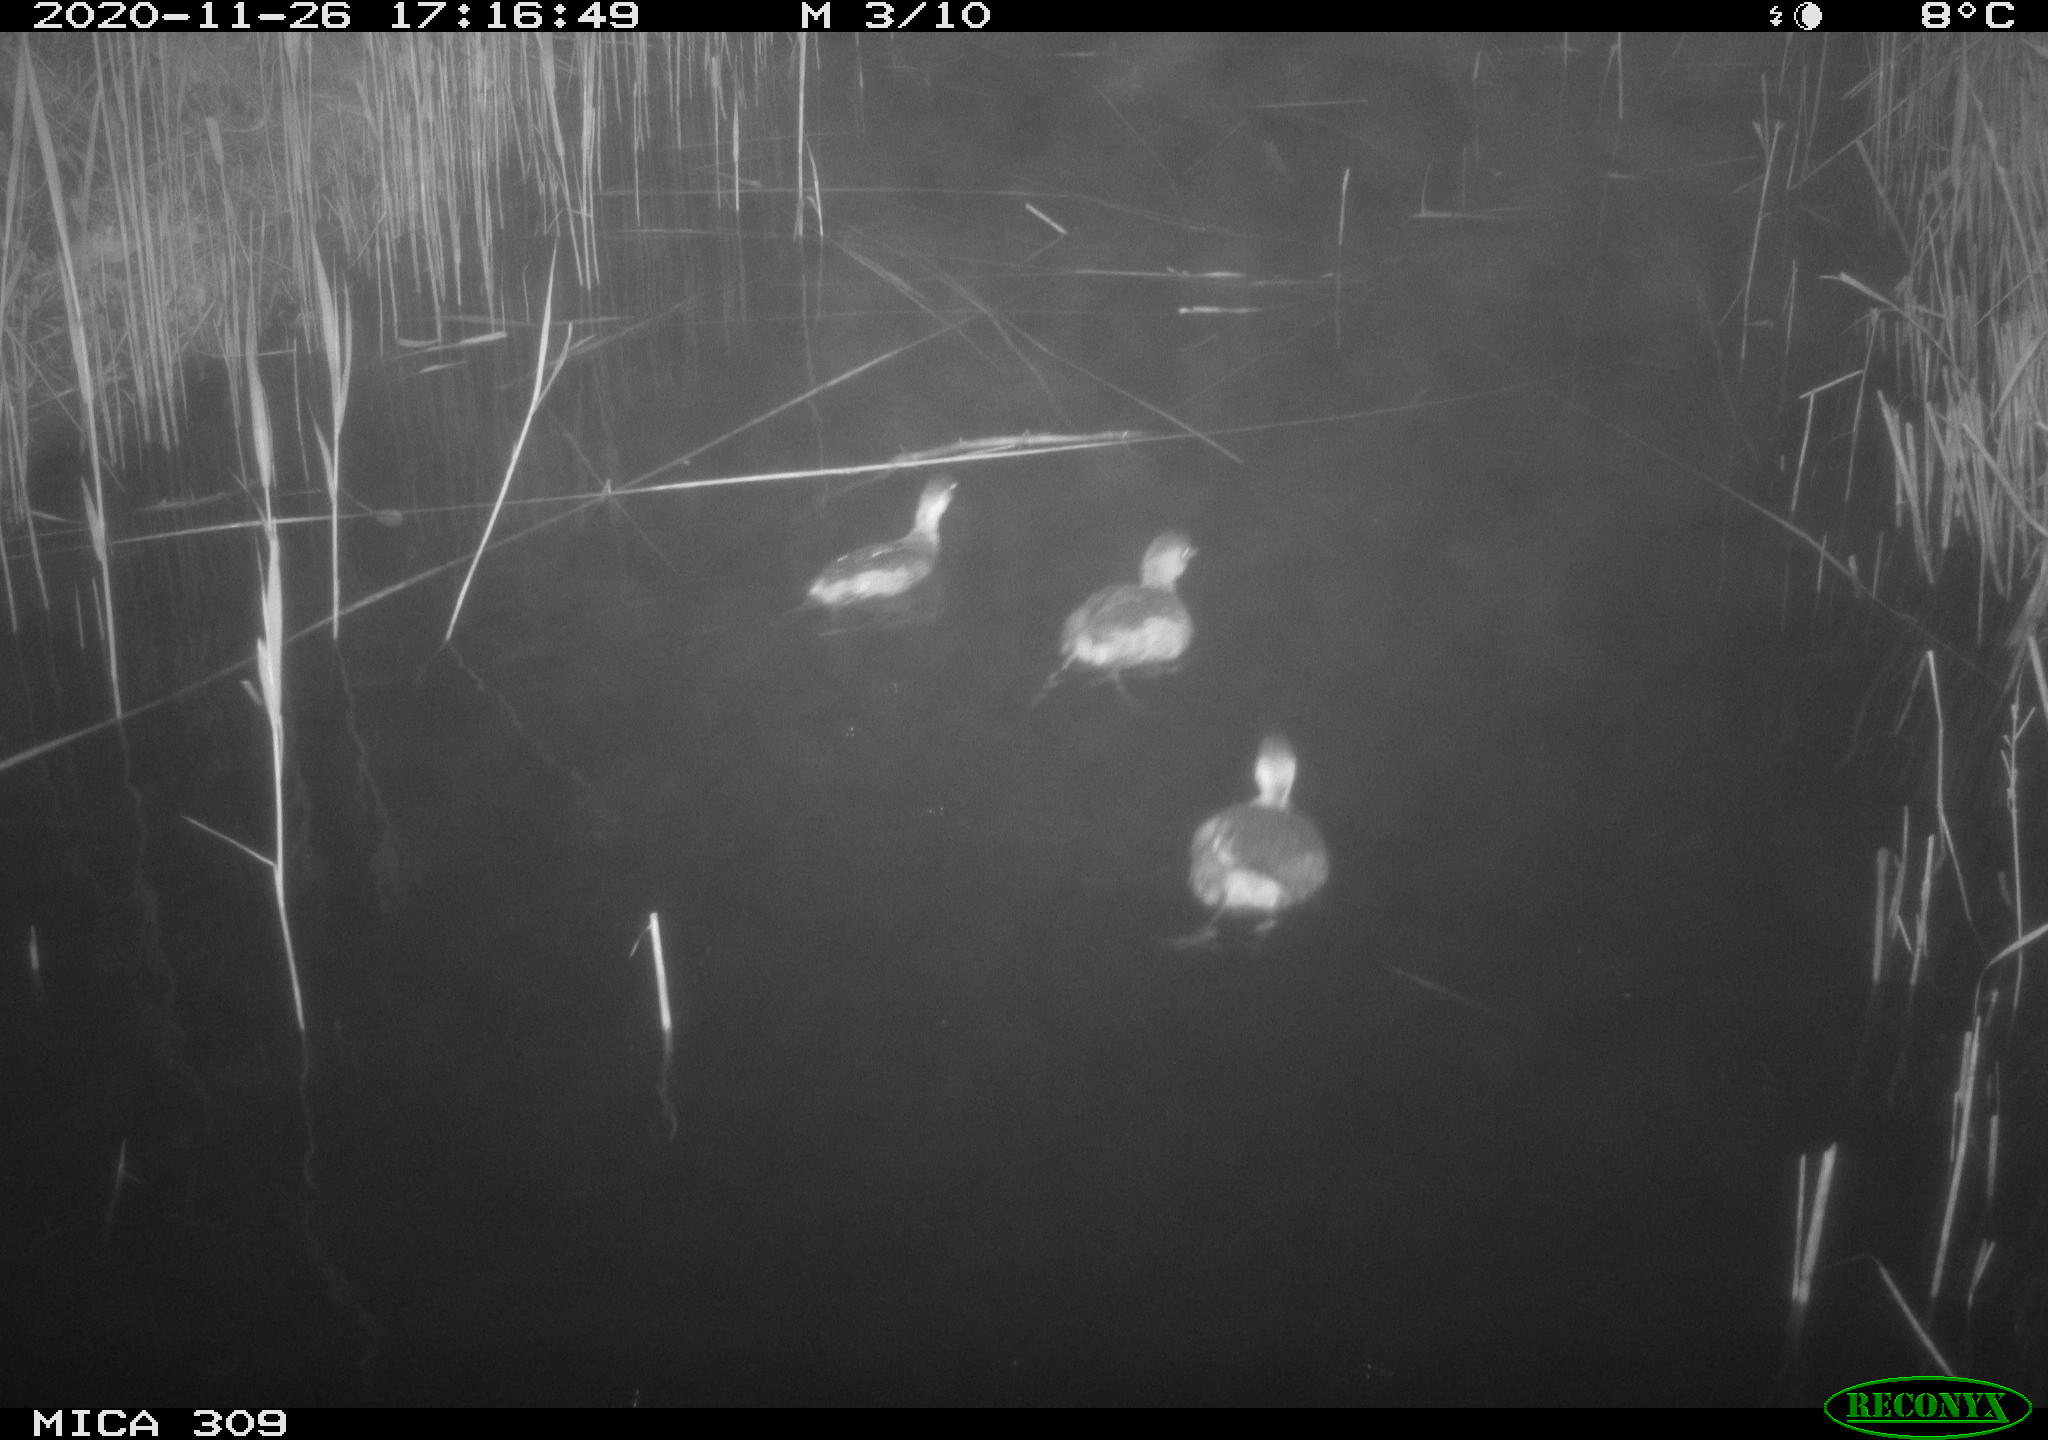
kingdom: Animalia
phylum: Chordata
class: Aves
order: Podicipediformes
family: Podicipedidae
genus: Tachybaptus
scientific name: Tachybaptus ruficollis
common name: Little grebe
